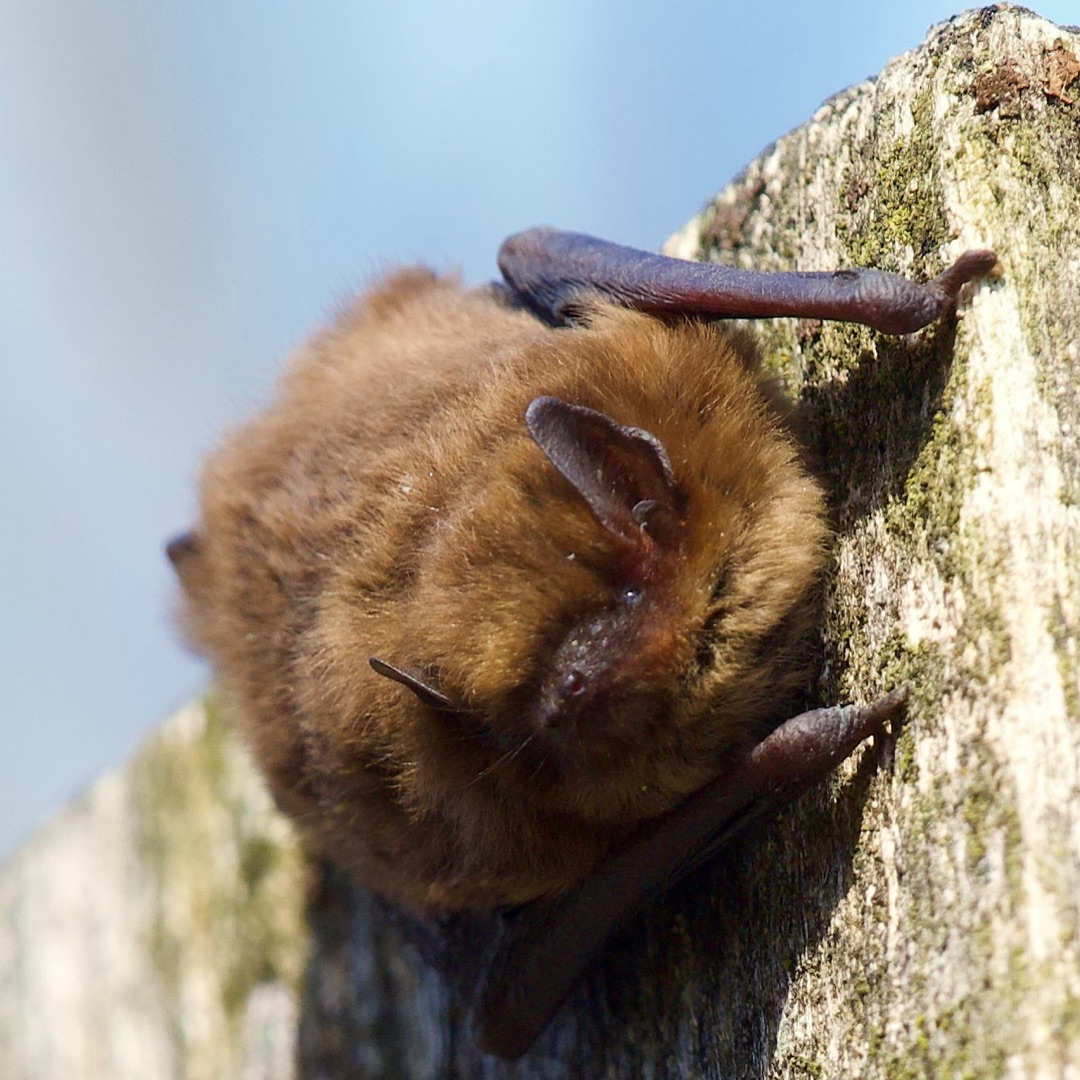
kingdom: Animalia
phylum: Chordata
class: Mammalia
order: Chiroptera
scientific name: Chiroptera
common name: Flagermus
